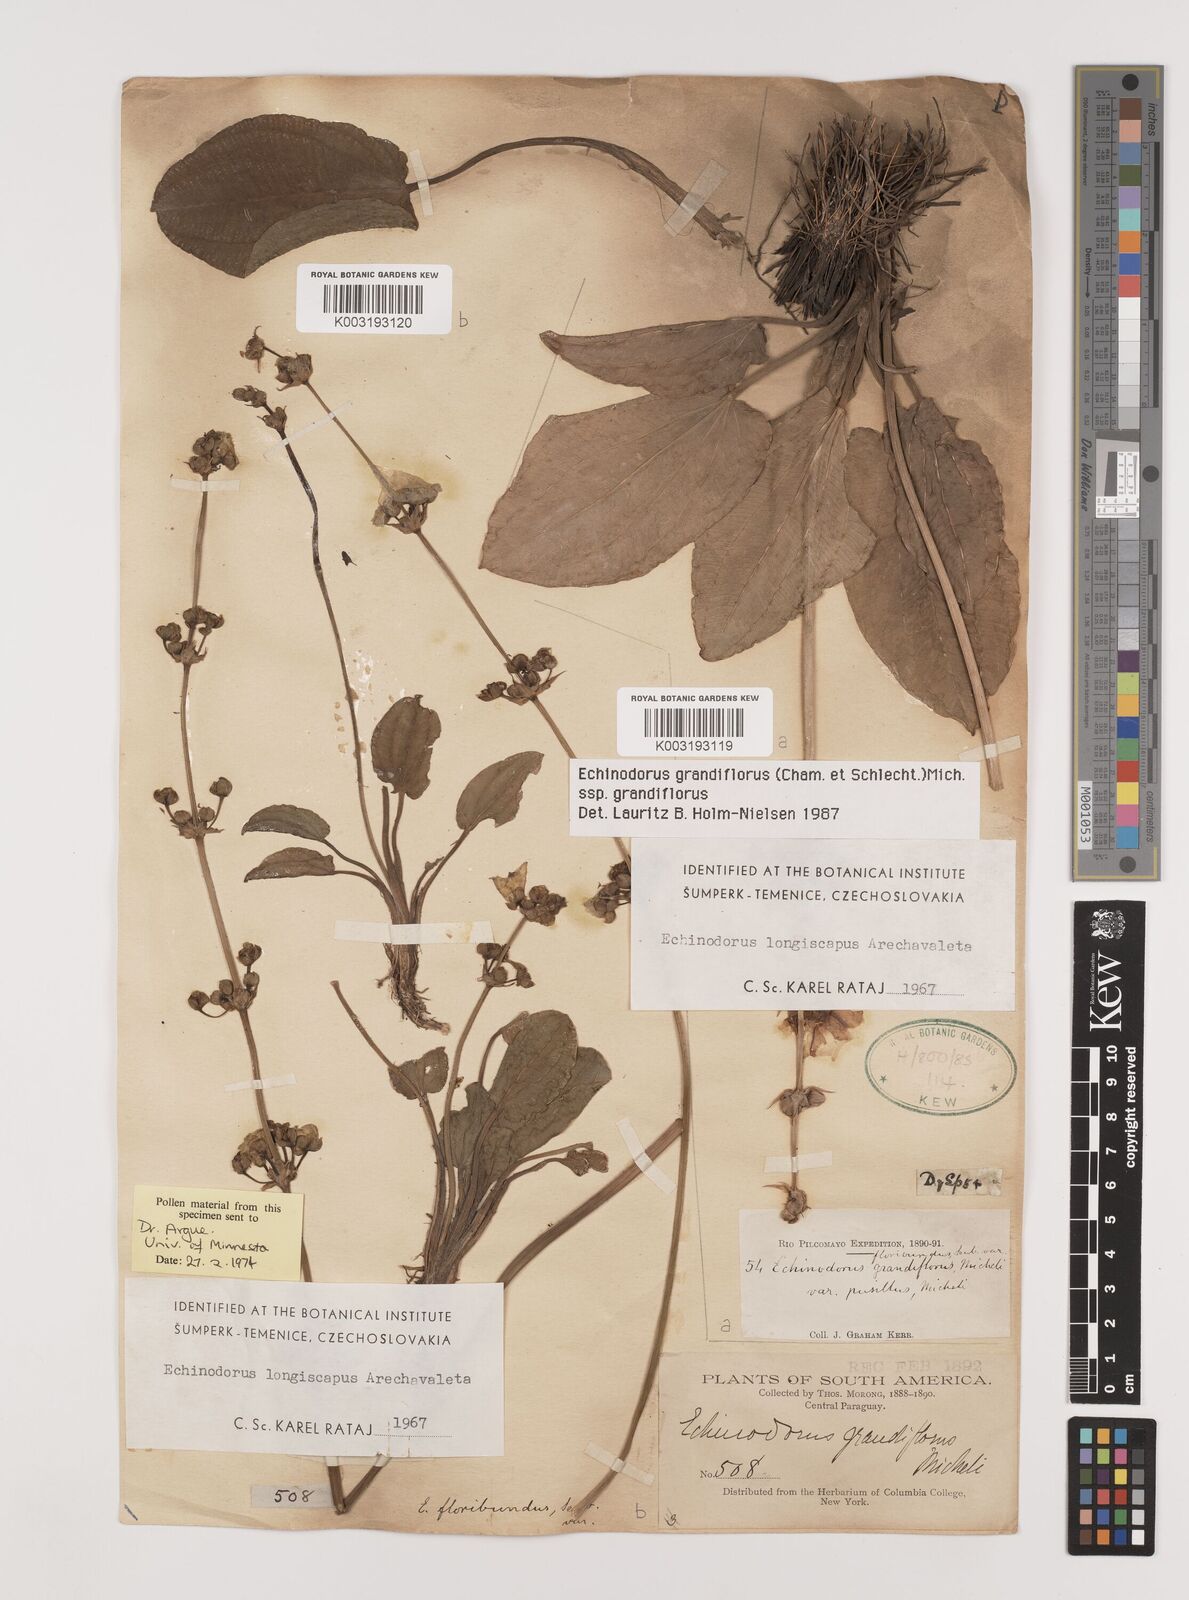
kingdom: Plantae
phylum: Tracheophyta
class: Liliopsida
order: Alismatales
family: Alismataceae
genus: Aquarius
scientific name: Aquarius grandiflorus
